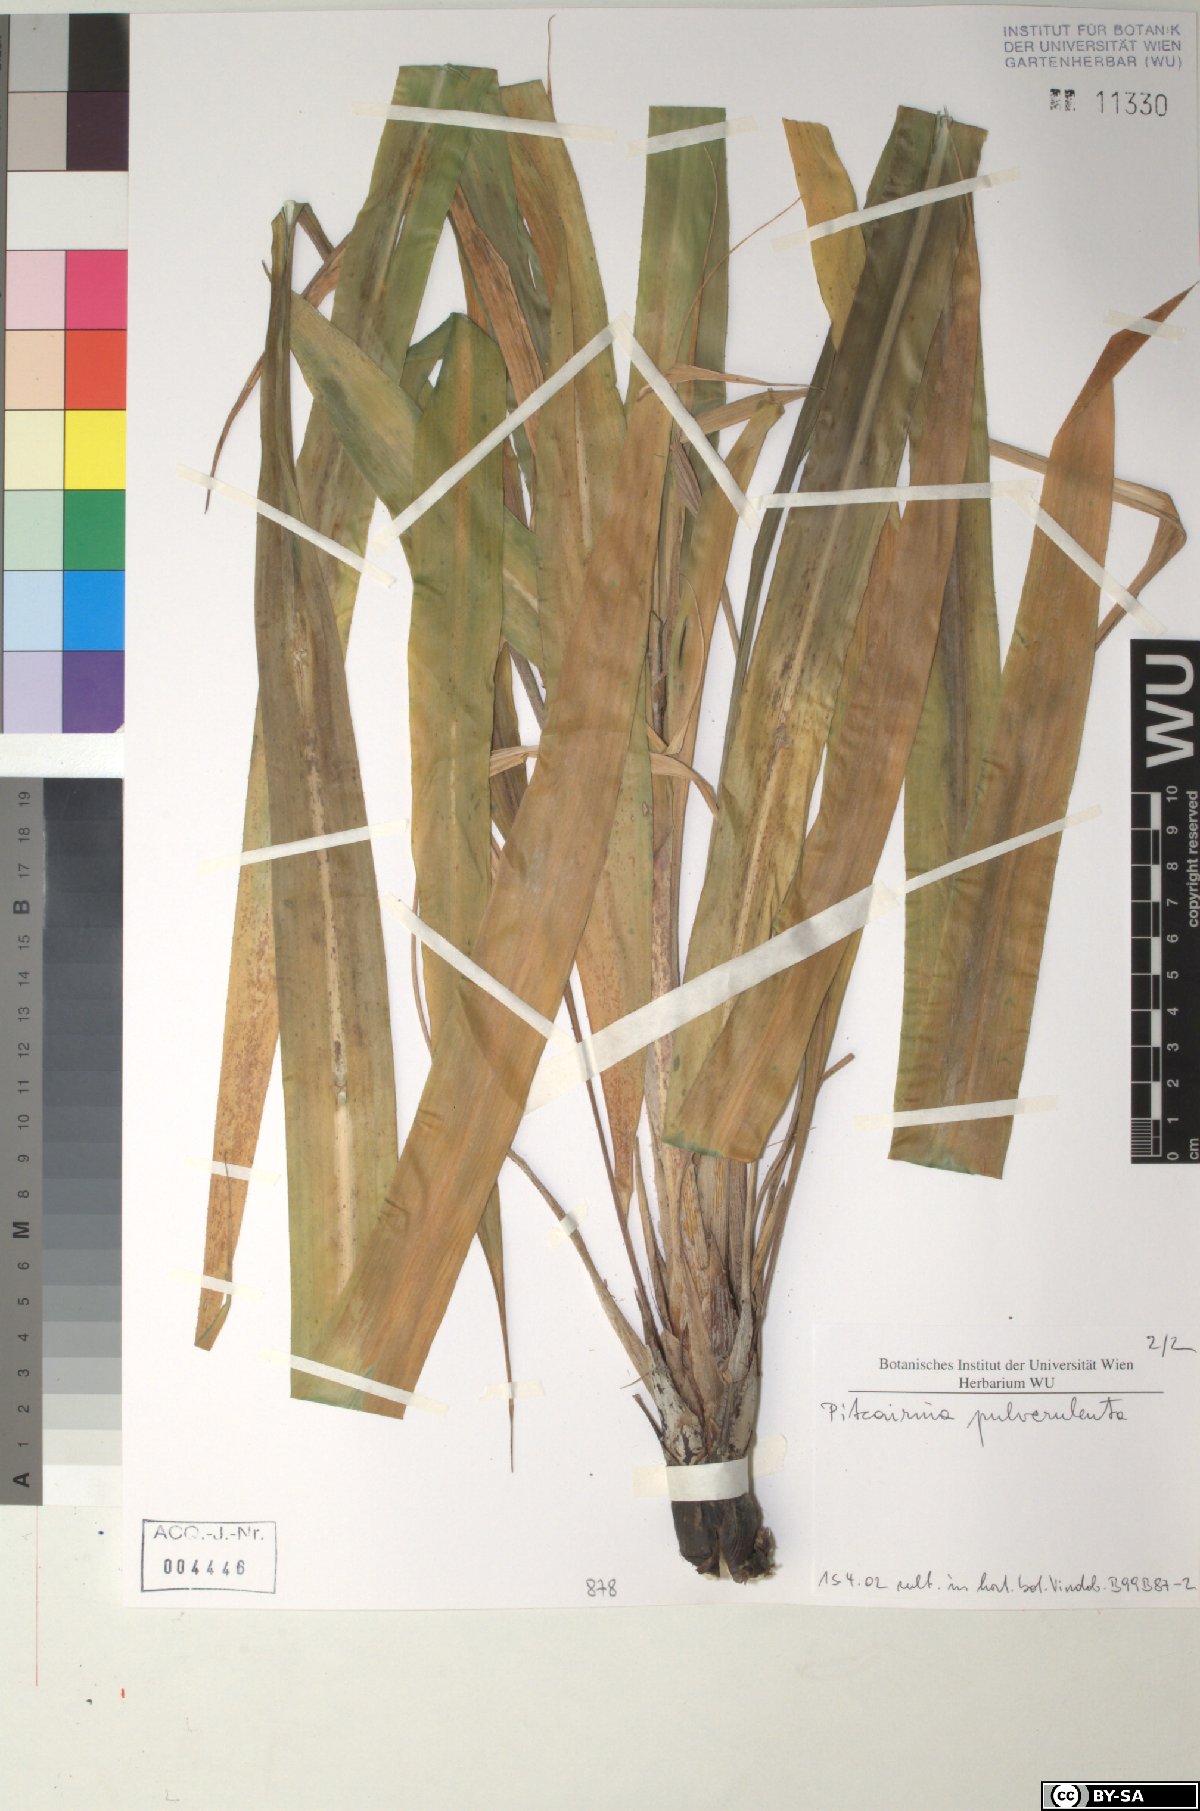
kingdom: Plantae
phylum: Tracheophyta
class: Liliopsida
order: Poales
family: Bromeliaceae
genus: Pitcairnia
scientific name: Pitcairnia pulverulenta
